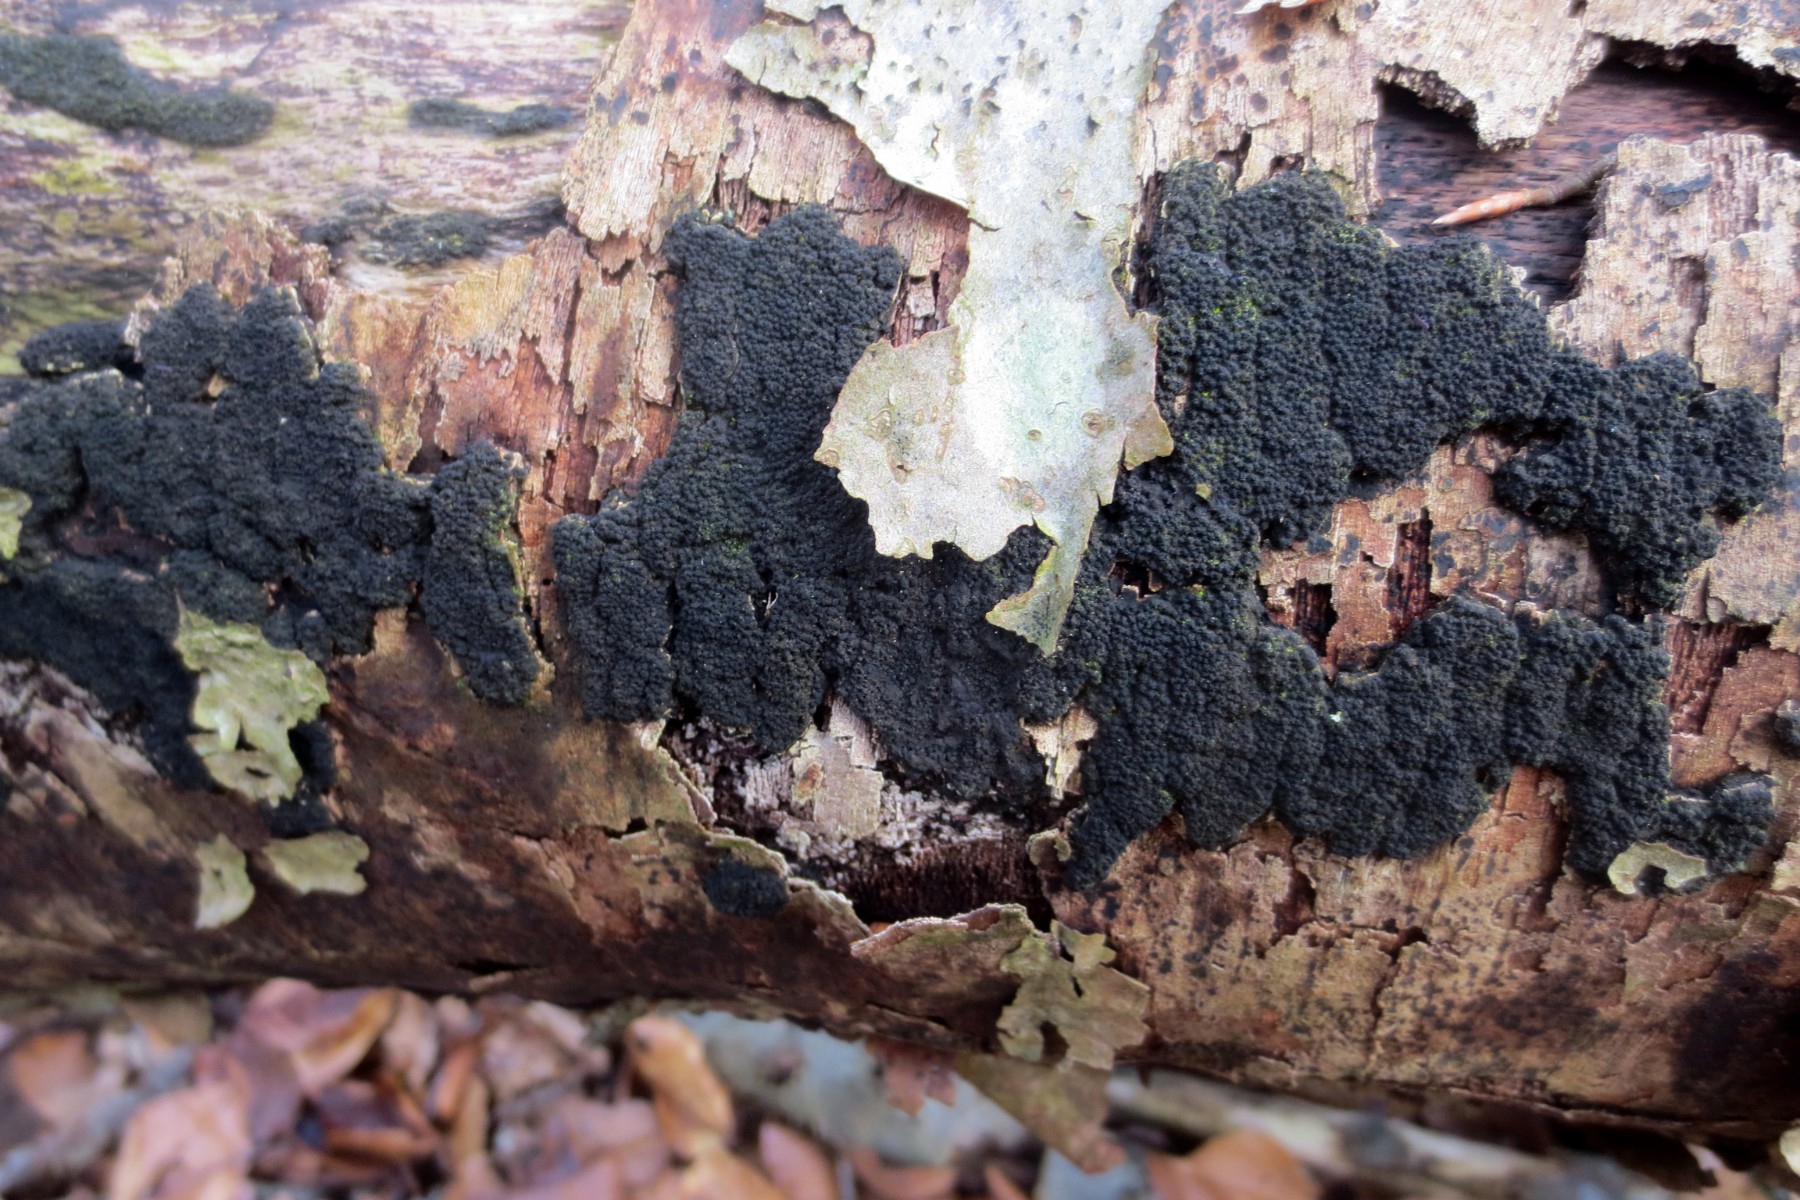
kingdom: Fungi
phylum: Ascomycota
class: Sordariomycetes
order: Xylariales
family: Diatrypaceae
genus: Eutypa
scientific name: Eutypa spinosa
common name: grov kulskorpe
